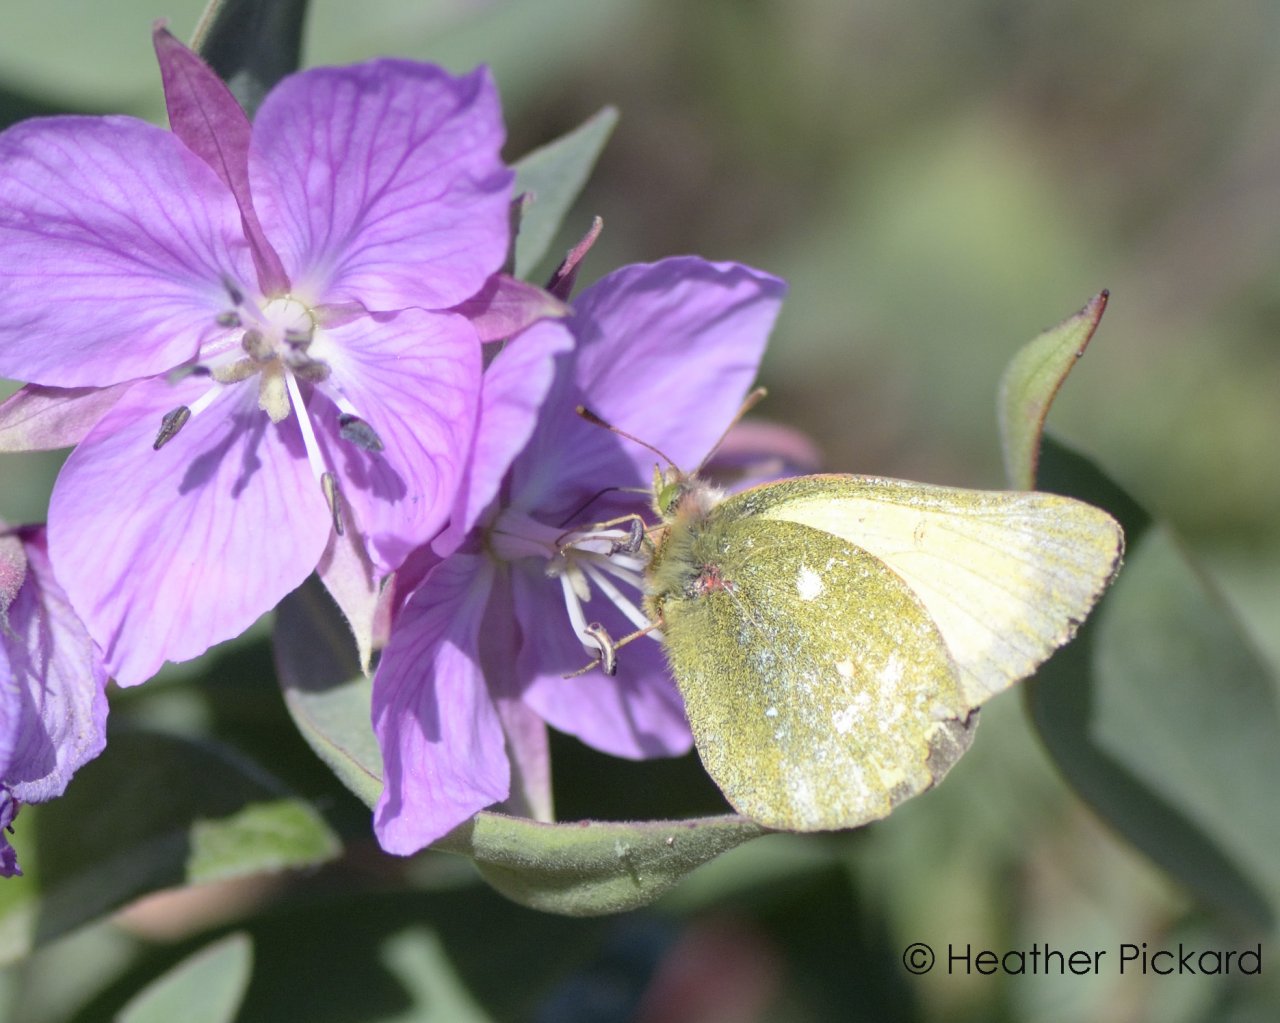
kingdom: Animalia
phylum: Arthropoda
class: Insecta
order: Lepidoptera
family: Pieridae
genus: Colias
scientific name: Colias palaeno
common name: Chippewa Sulphur
